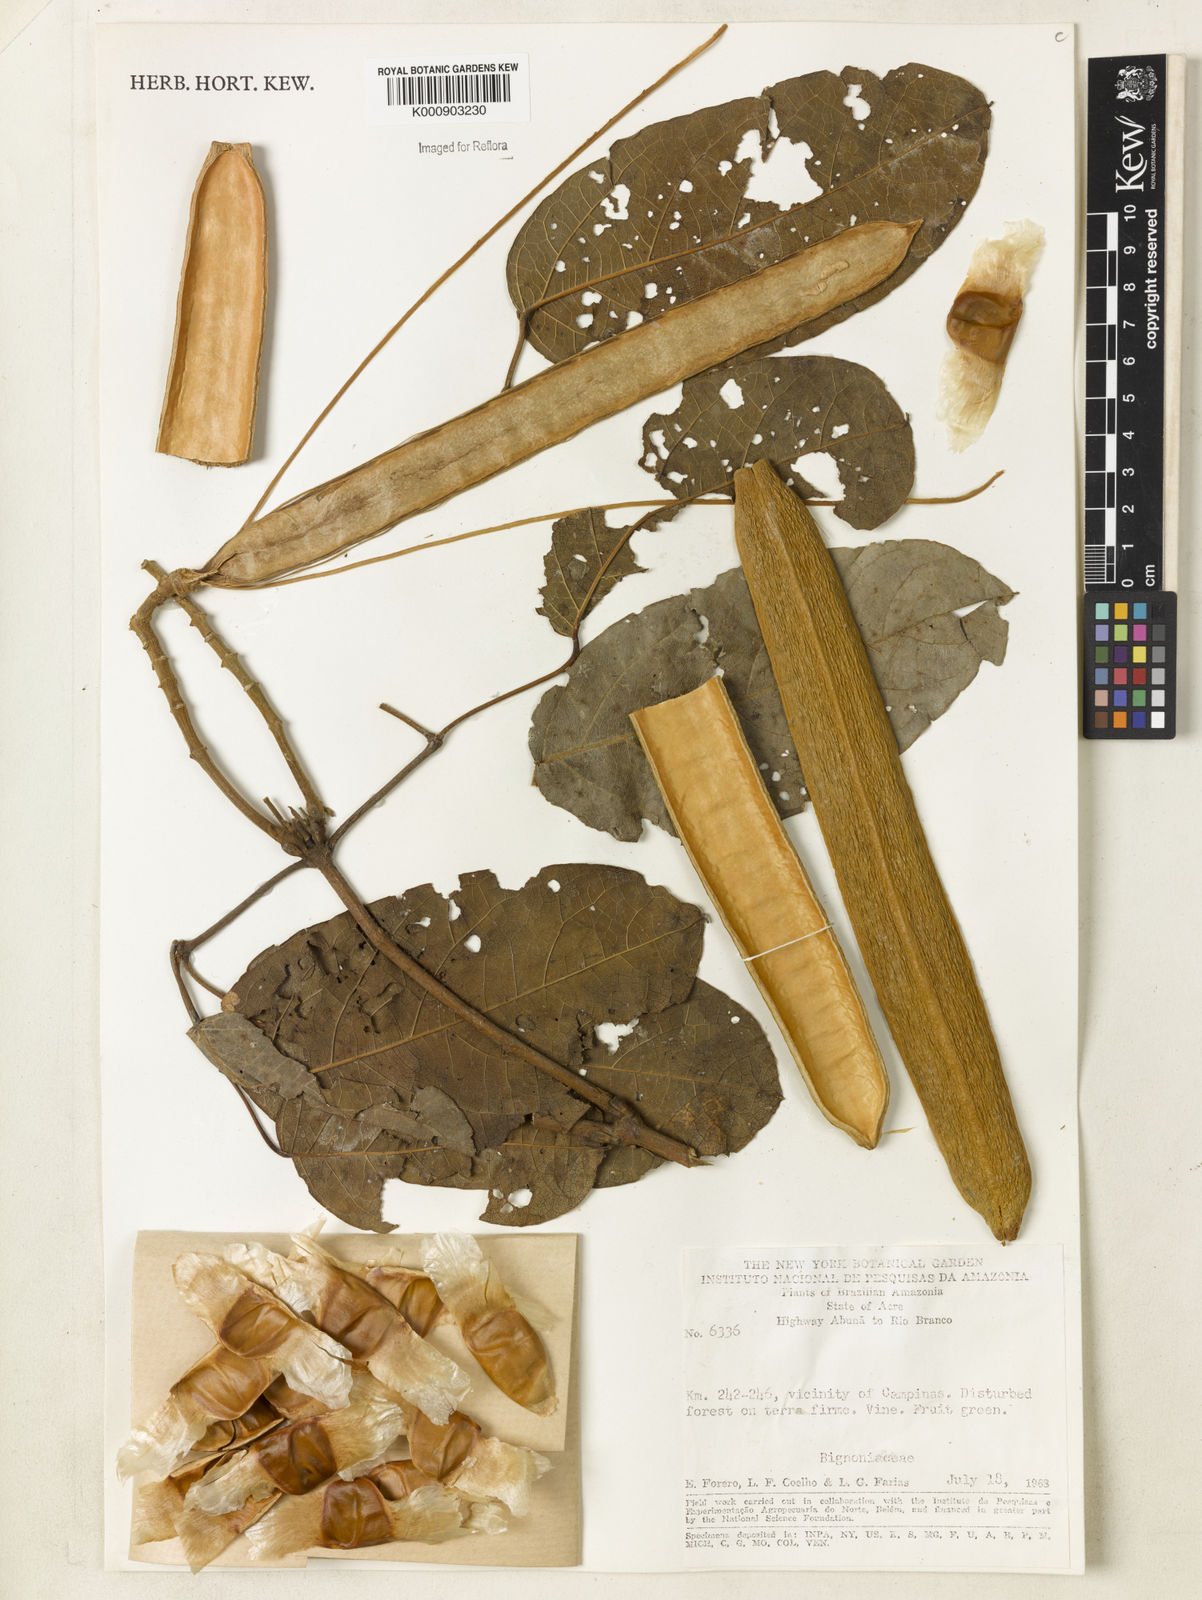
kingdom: Plantae
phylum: Tracheophyta
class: Magnoliopsida
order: Lamiales
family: Bignoniaceae
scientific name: Bignoniaceae
